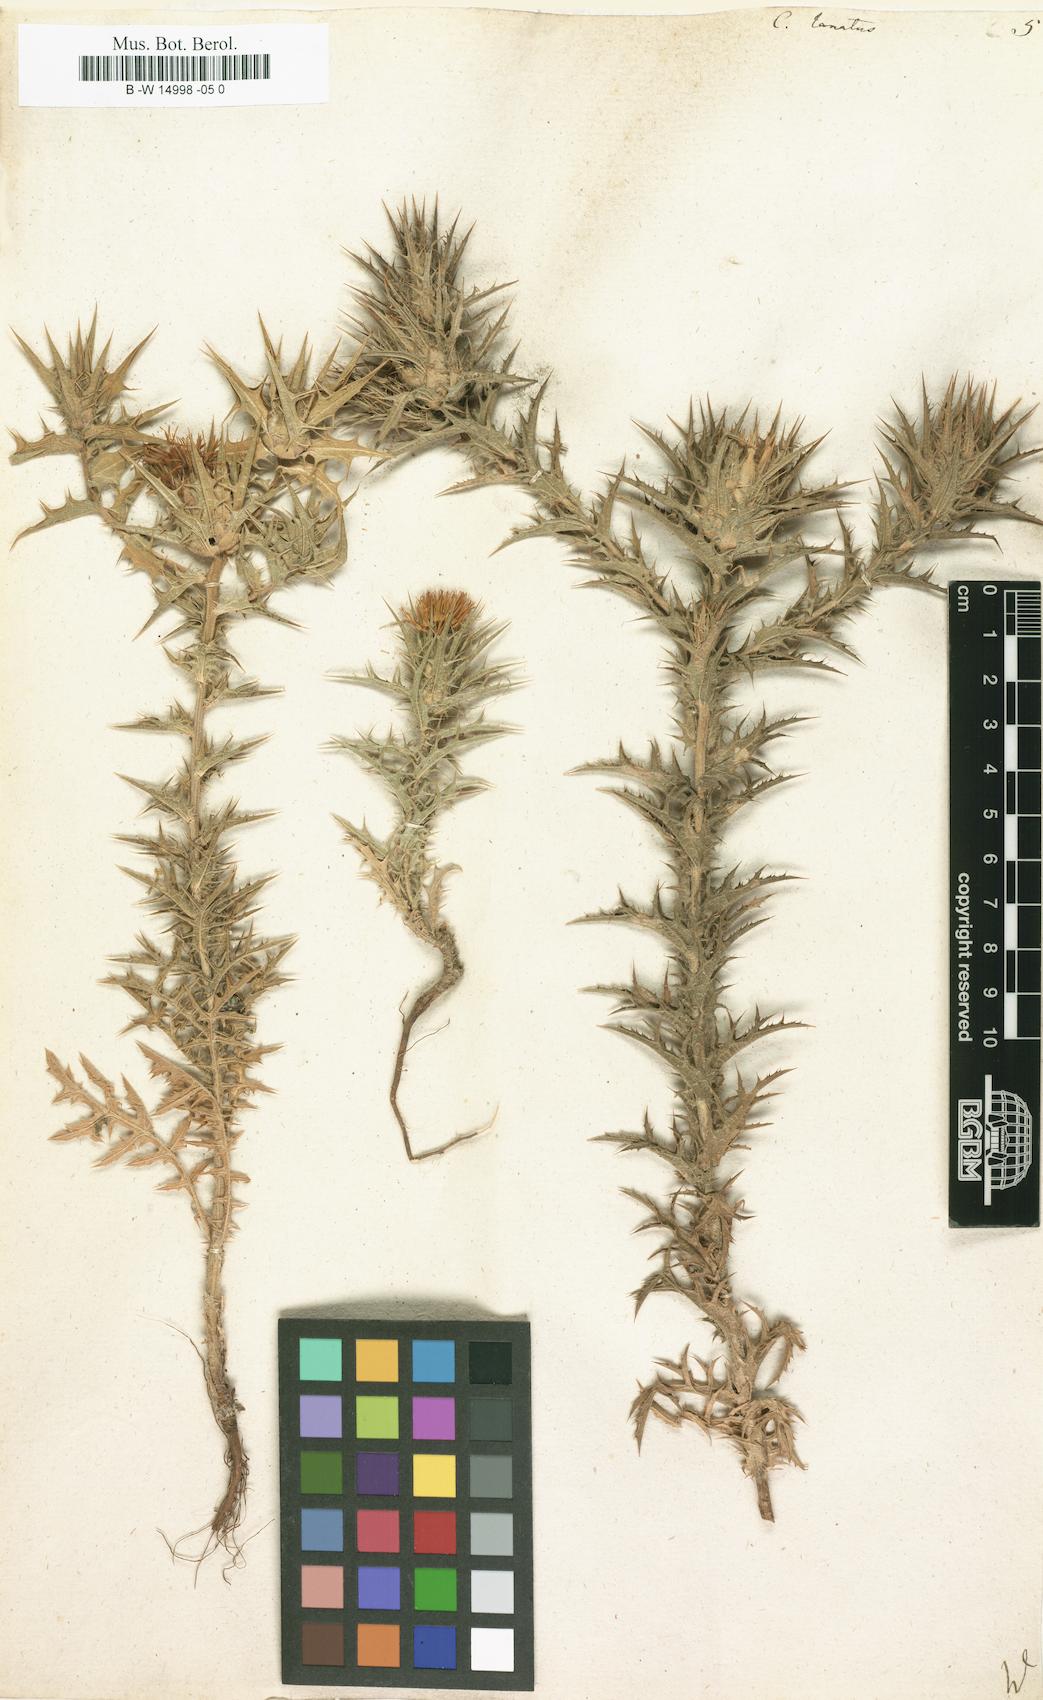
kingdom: Plantae
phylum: Tracheophyta
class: Magnoliopsida
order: Asterales
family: Asteraceae
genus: Carthamus
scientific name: Carthamus lanatus
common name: Downy safflower
